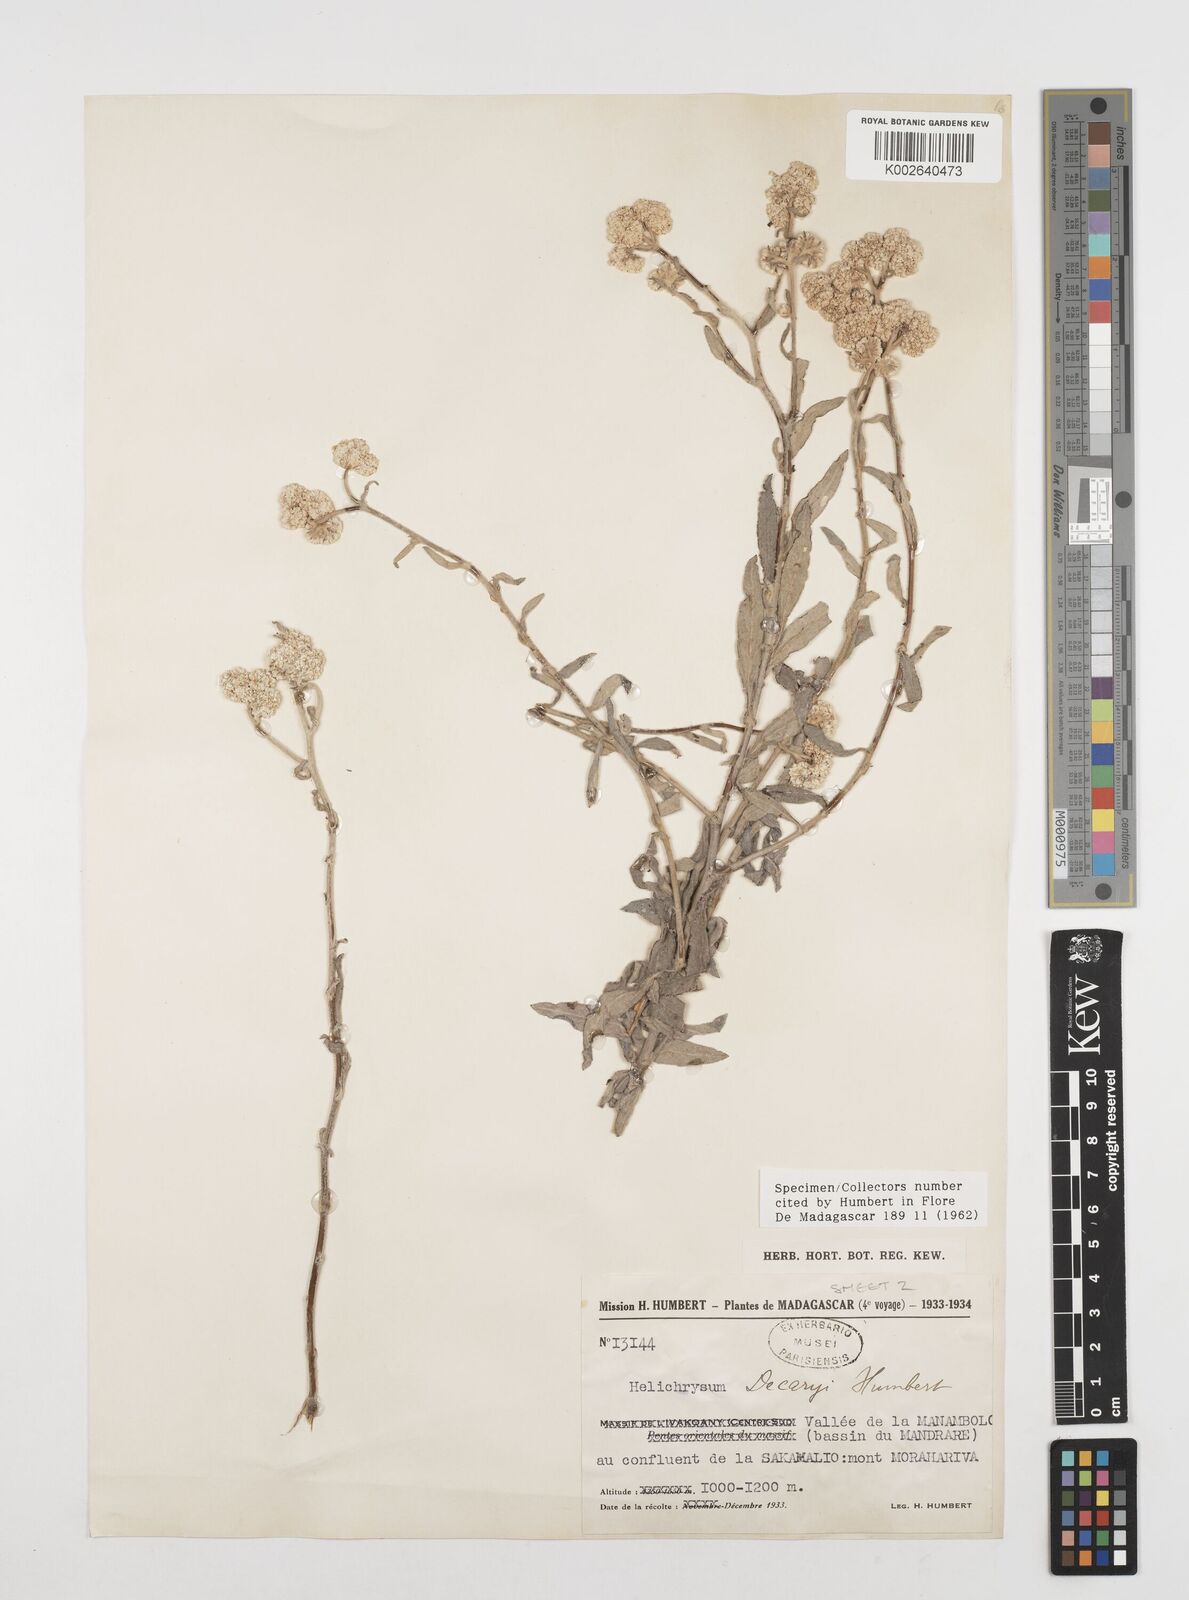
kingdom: Plantae
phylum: Tracheophyta
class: Magnoliopsida
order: Asterales
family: Asteraceae
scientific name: Asteraceae
